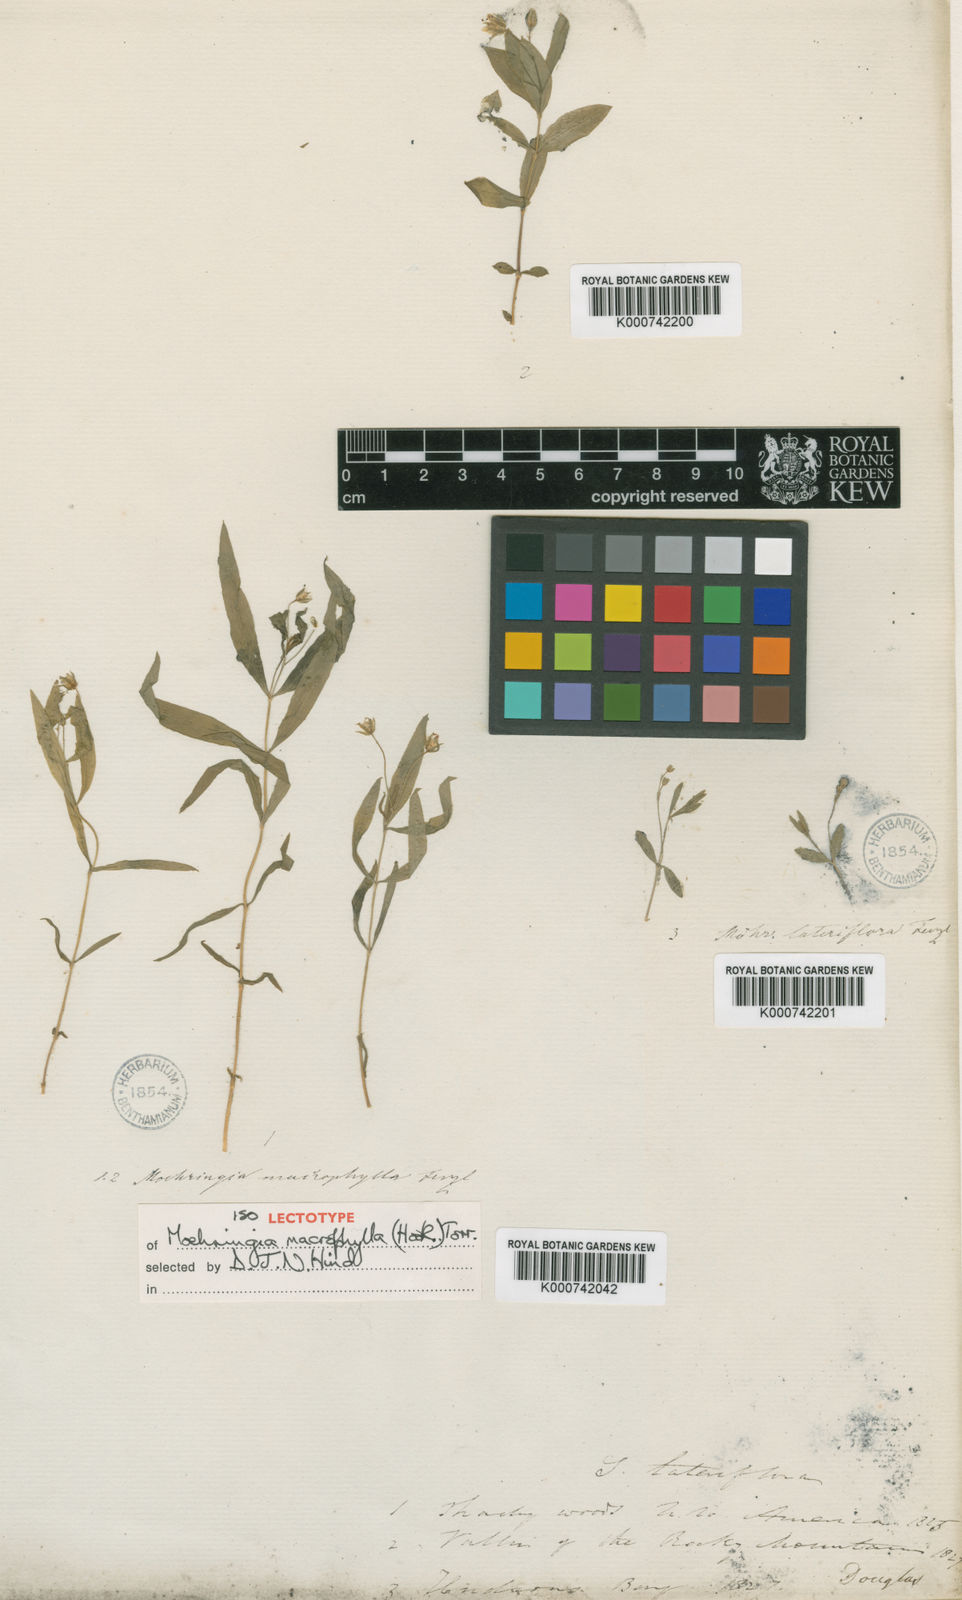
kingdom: Plantae
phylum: Tracheophyta
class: Magnoliopsida
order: Caryophyllales
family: Caryophyllaceae
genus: Moehringia
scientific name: Moehringia macrophylla
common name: Big-leaf sandwort
